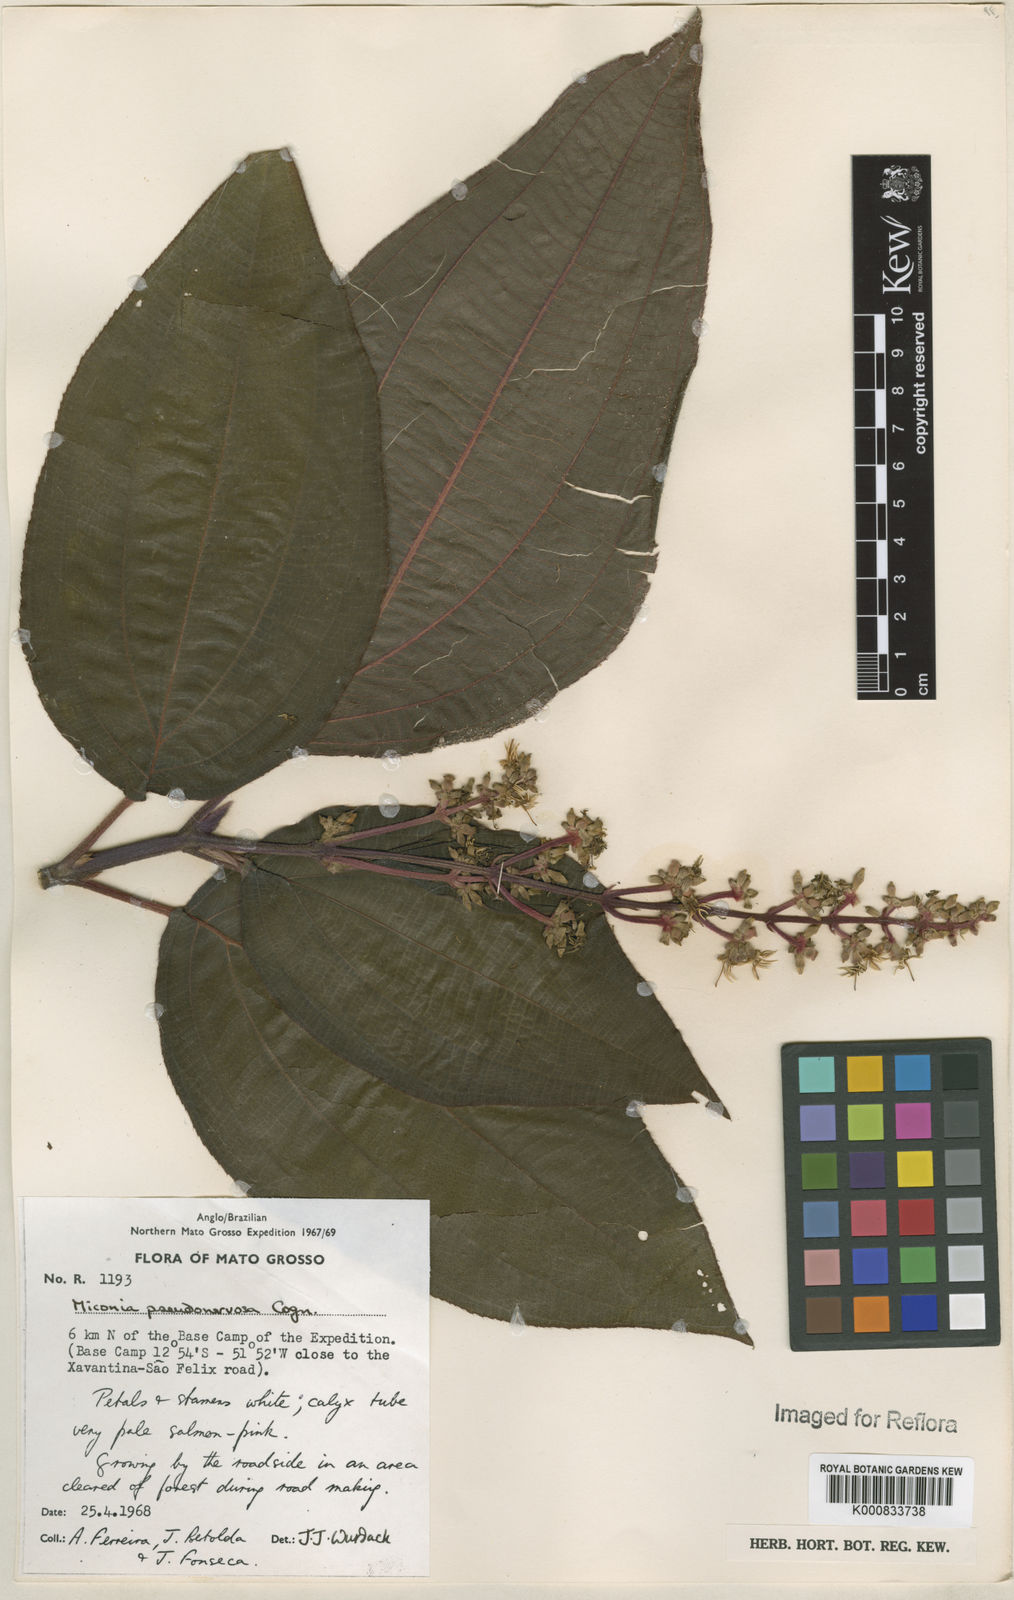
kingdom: Plantae
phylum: Tracheophyta
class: Magnoliopsida
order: Myrtales
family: Melastomataceae
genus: Miconia
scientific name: Miconia pseudonervosa
